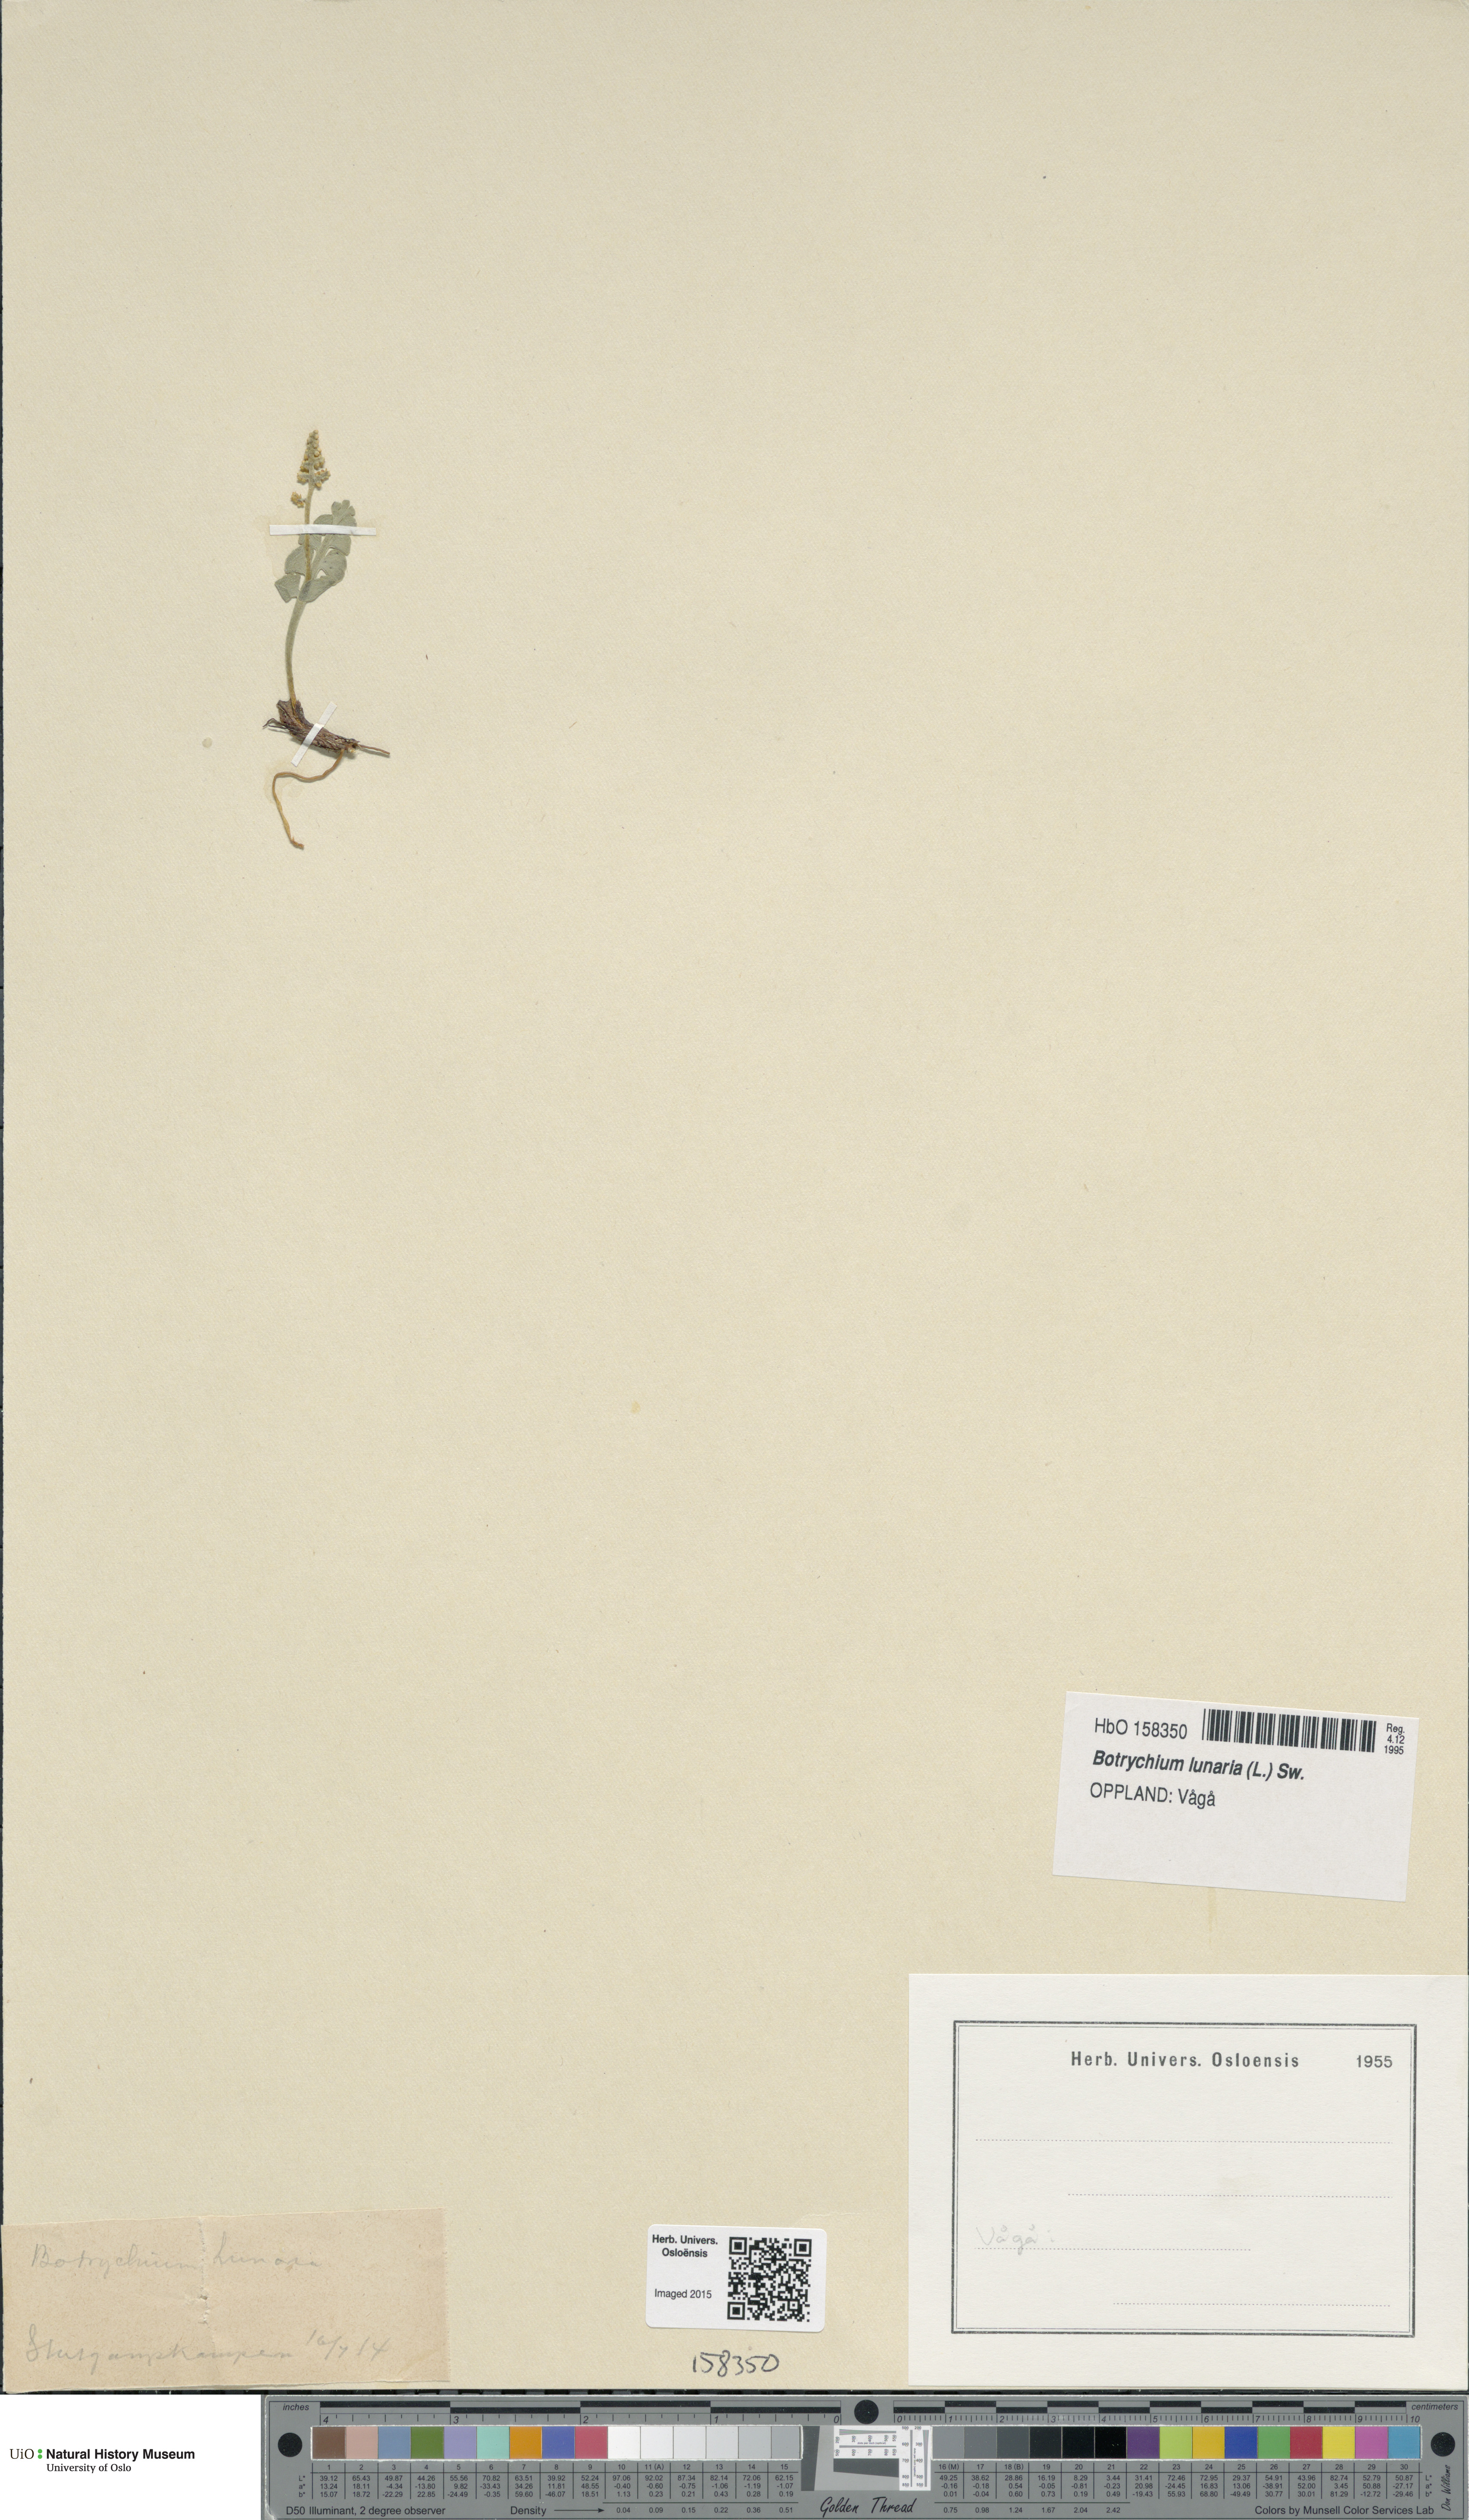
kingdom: Plantae
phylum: Tracheophyta
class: Polypodiopsida
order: Ophioglossales
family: Ophioglossaceae
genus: Botrychium
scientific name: Botrychium lunaria
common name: Moonwort
